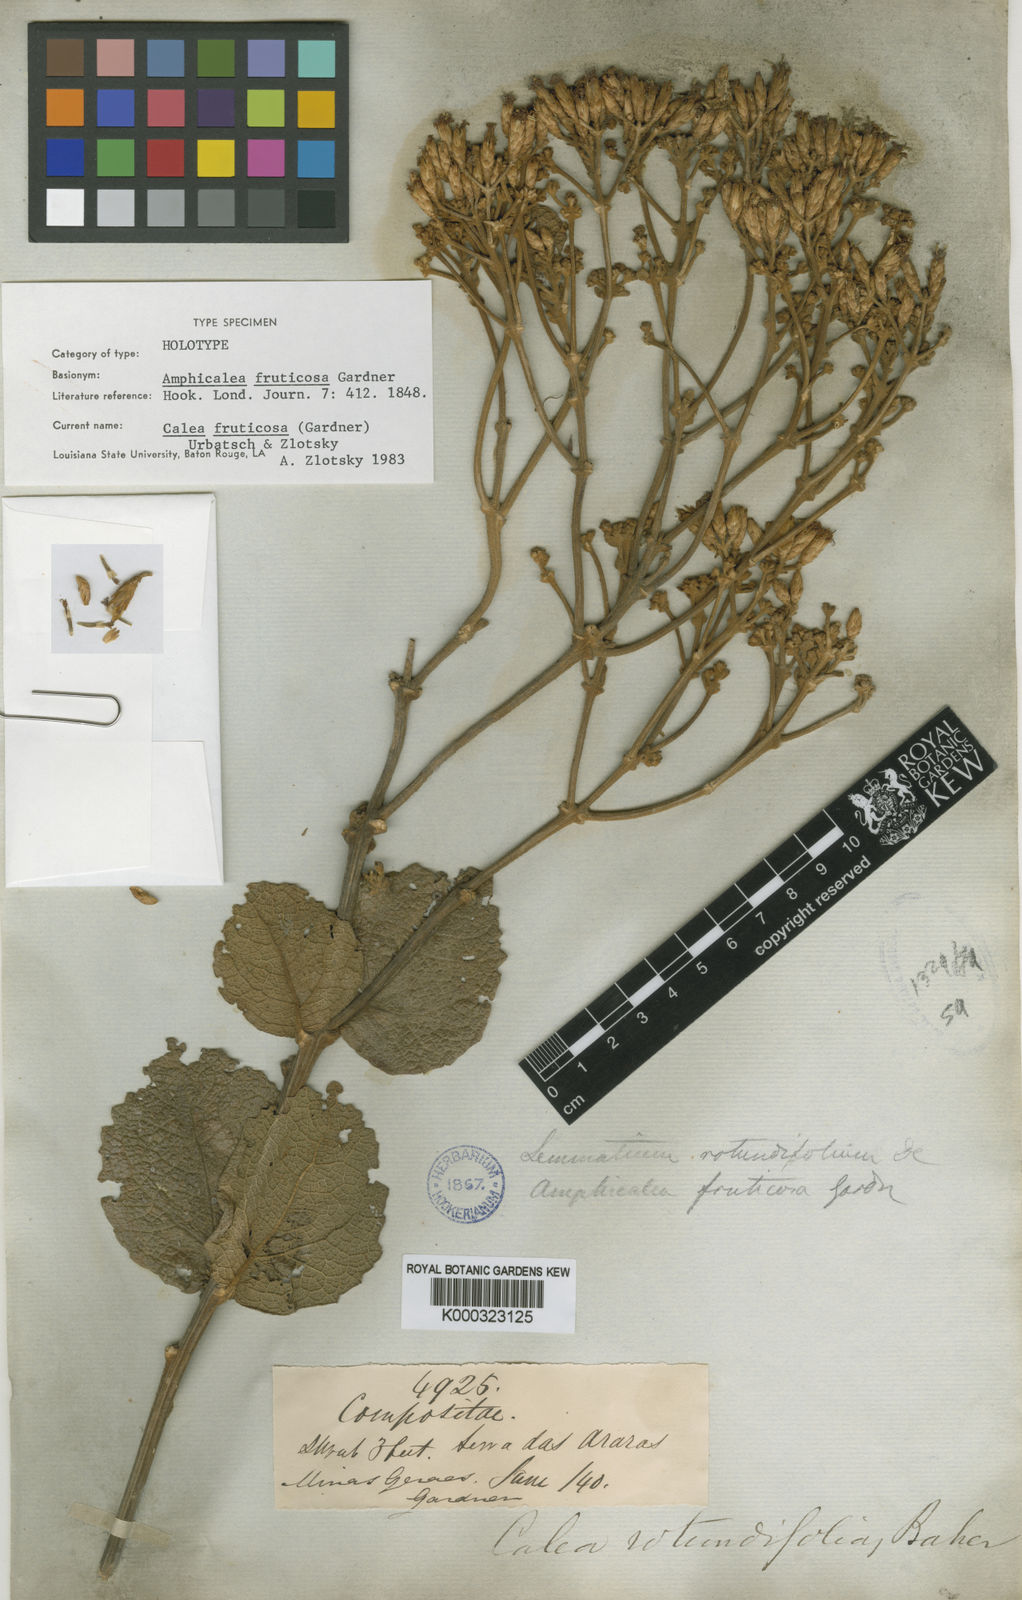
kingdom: Plantae
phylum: Tracheophyta
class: Magnoliopsida
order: Asterales
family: Asteraceae
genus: Calea
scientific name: Calea fruticosa
